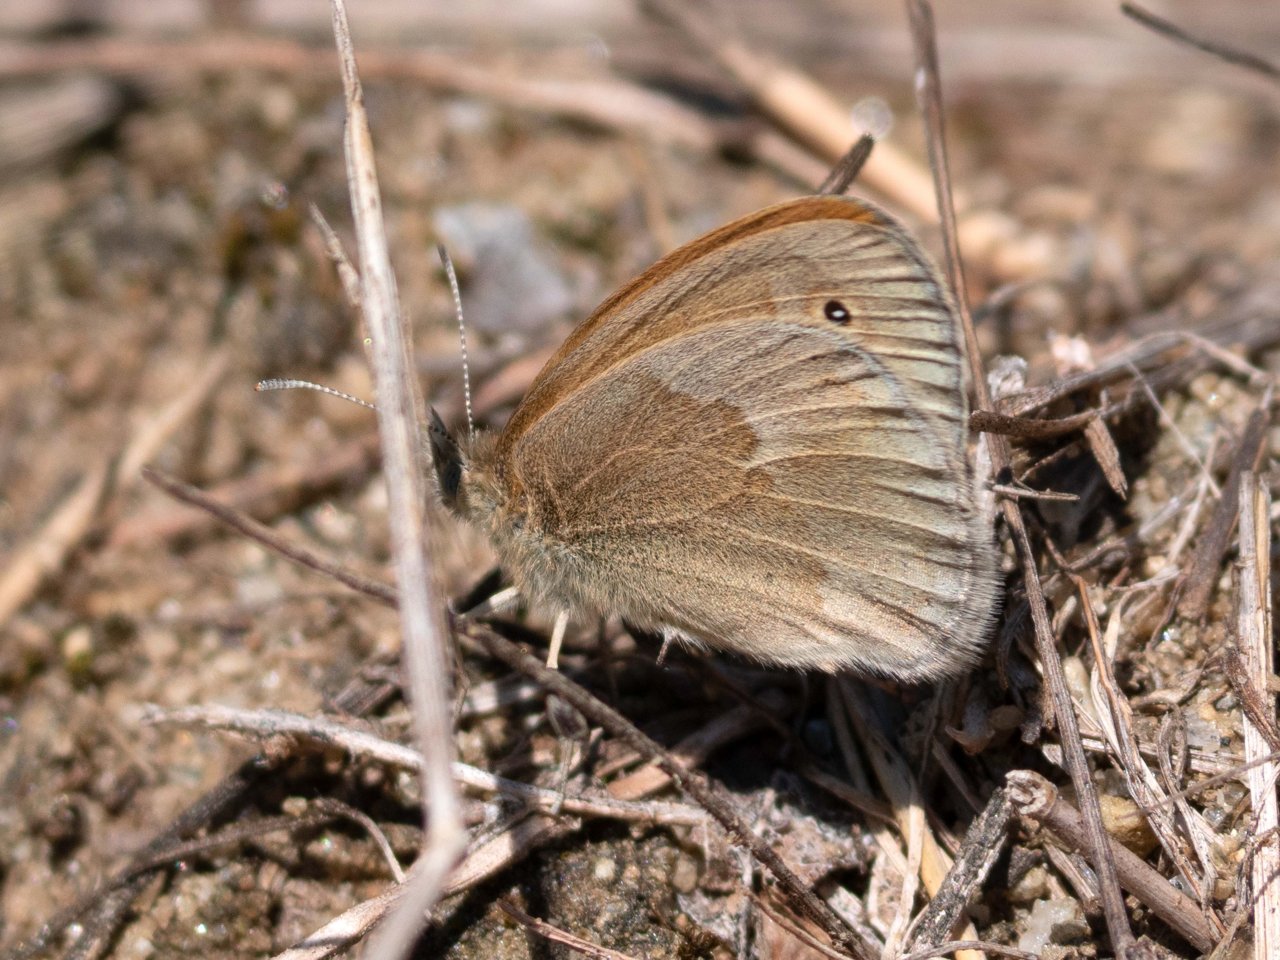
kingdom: Animalia
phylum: Arthropoda
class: Insecta
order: Lepidoptera
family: Nymphalidae
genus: Coenonympha
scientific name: Coenonympha tullia
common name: Large Heath
